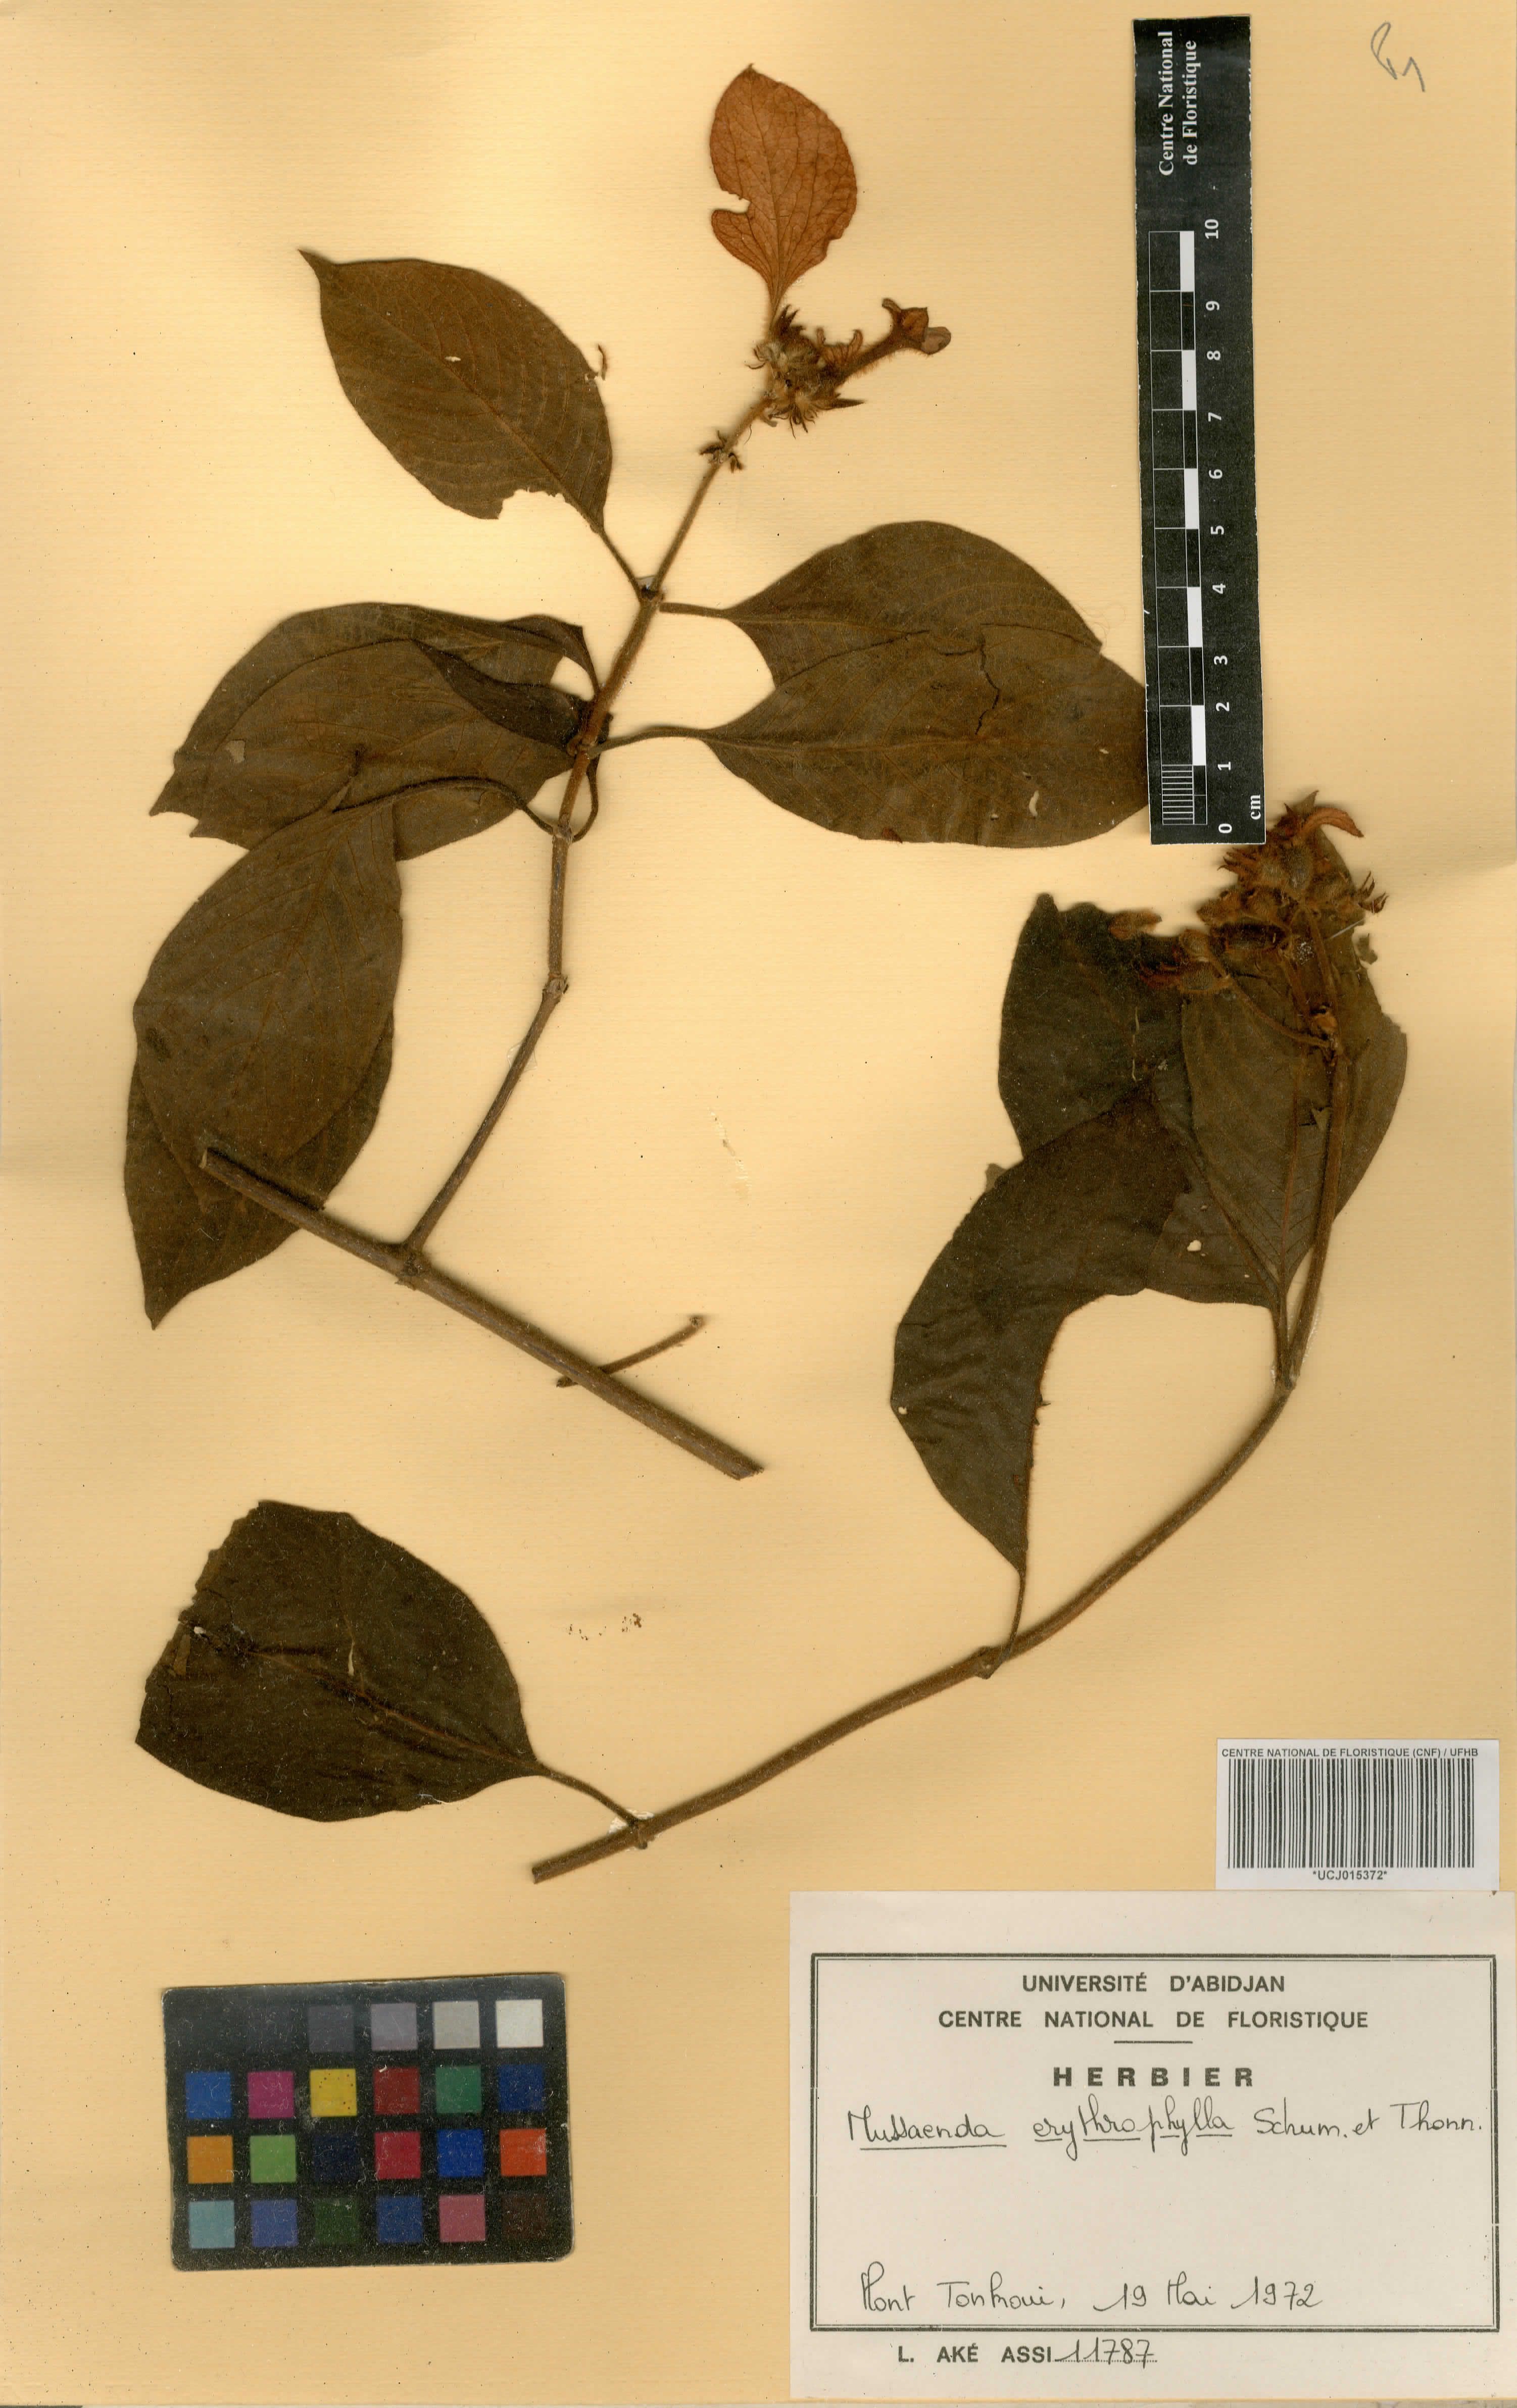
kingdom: Plantae
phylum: Tracheophyta
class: Magnoliopsida
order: Gentianales
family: Rubiaceae
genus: Mussaenda
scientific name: Mussaenda erythrophylla
